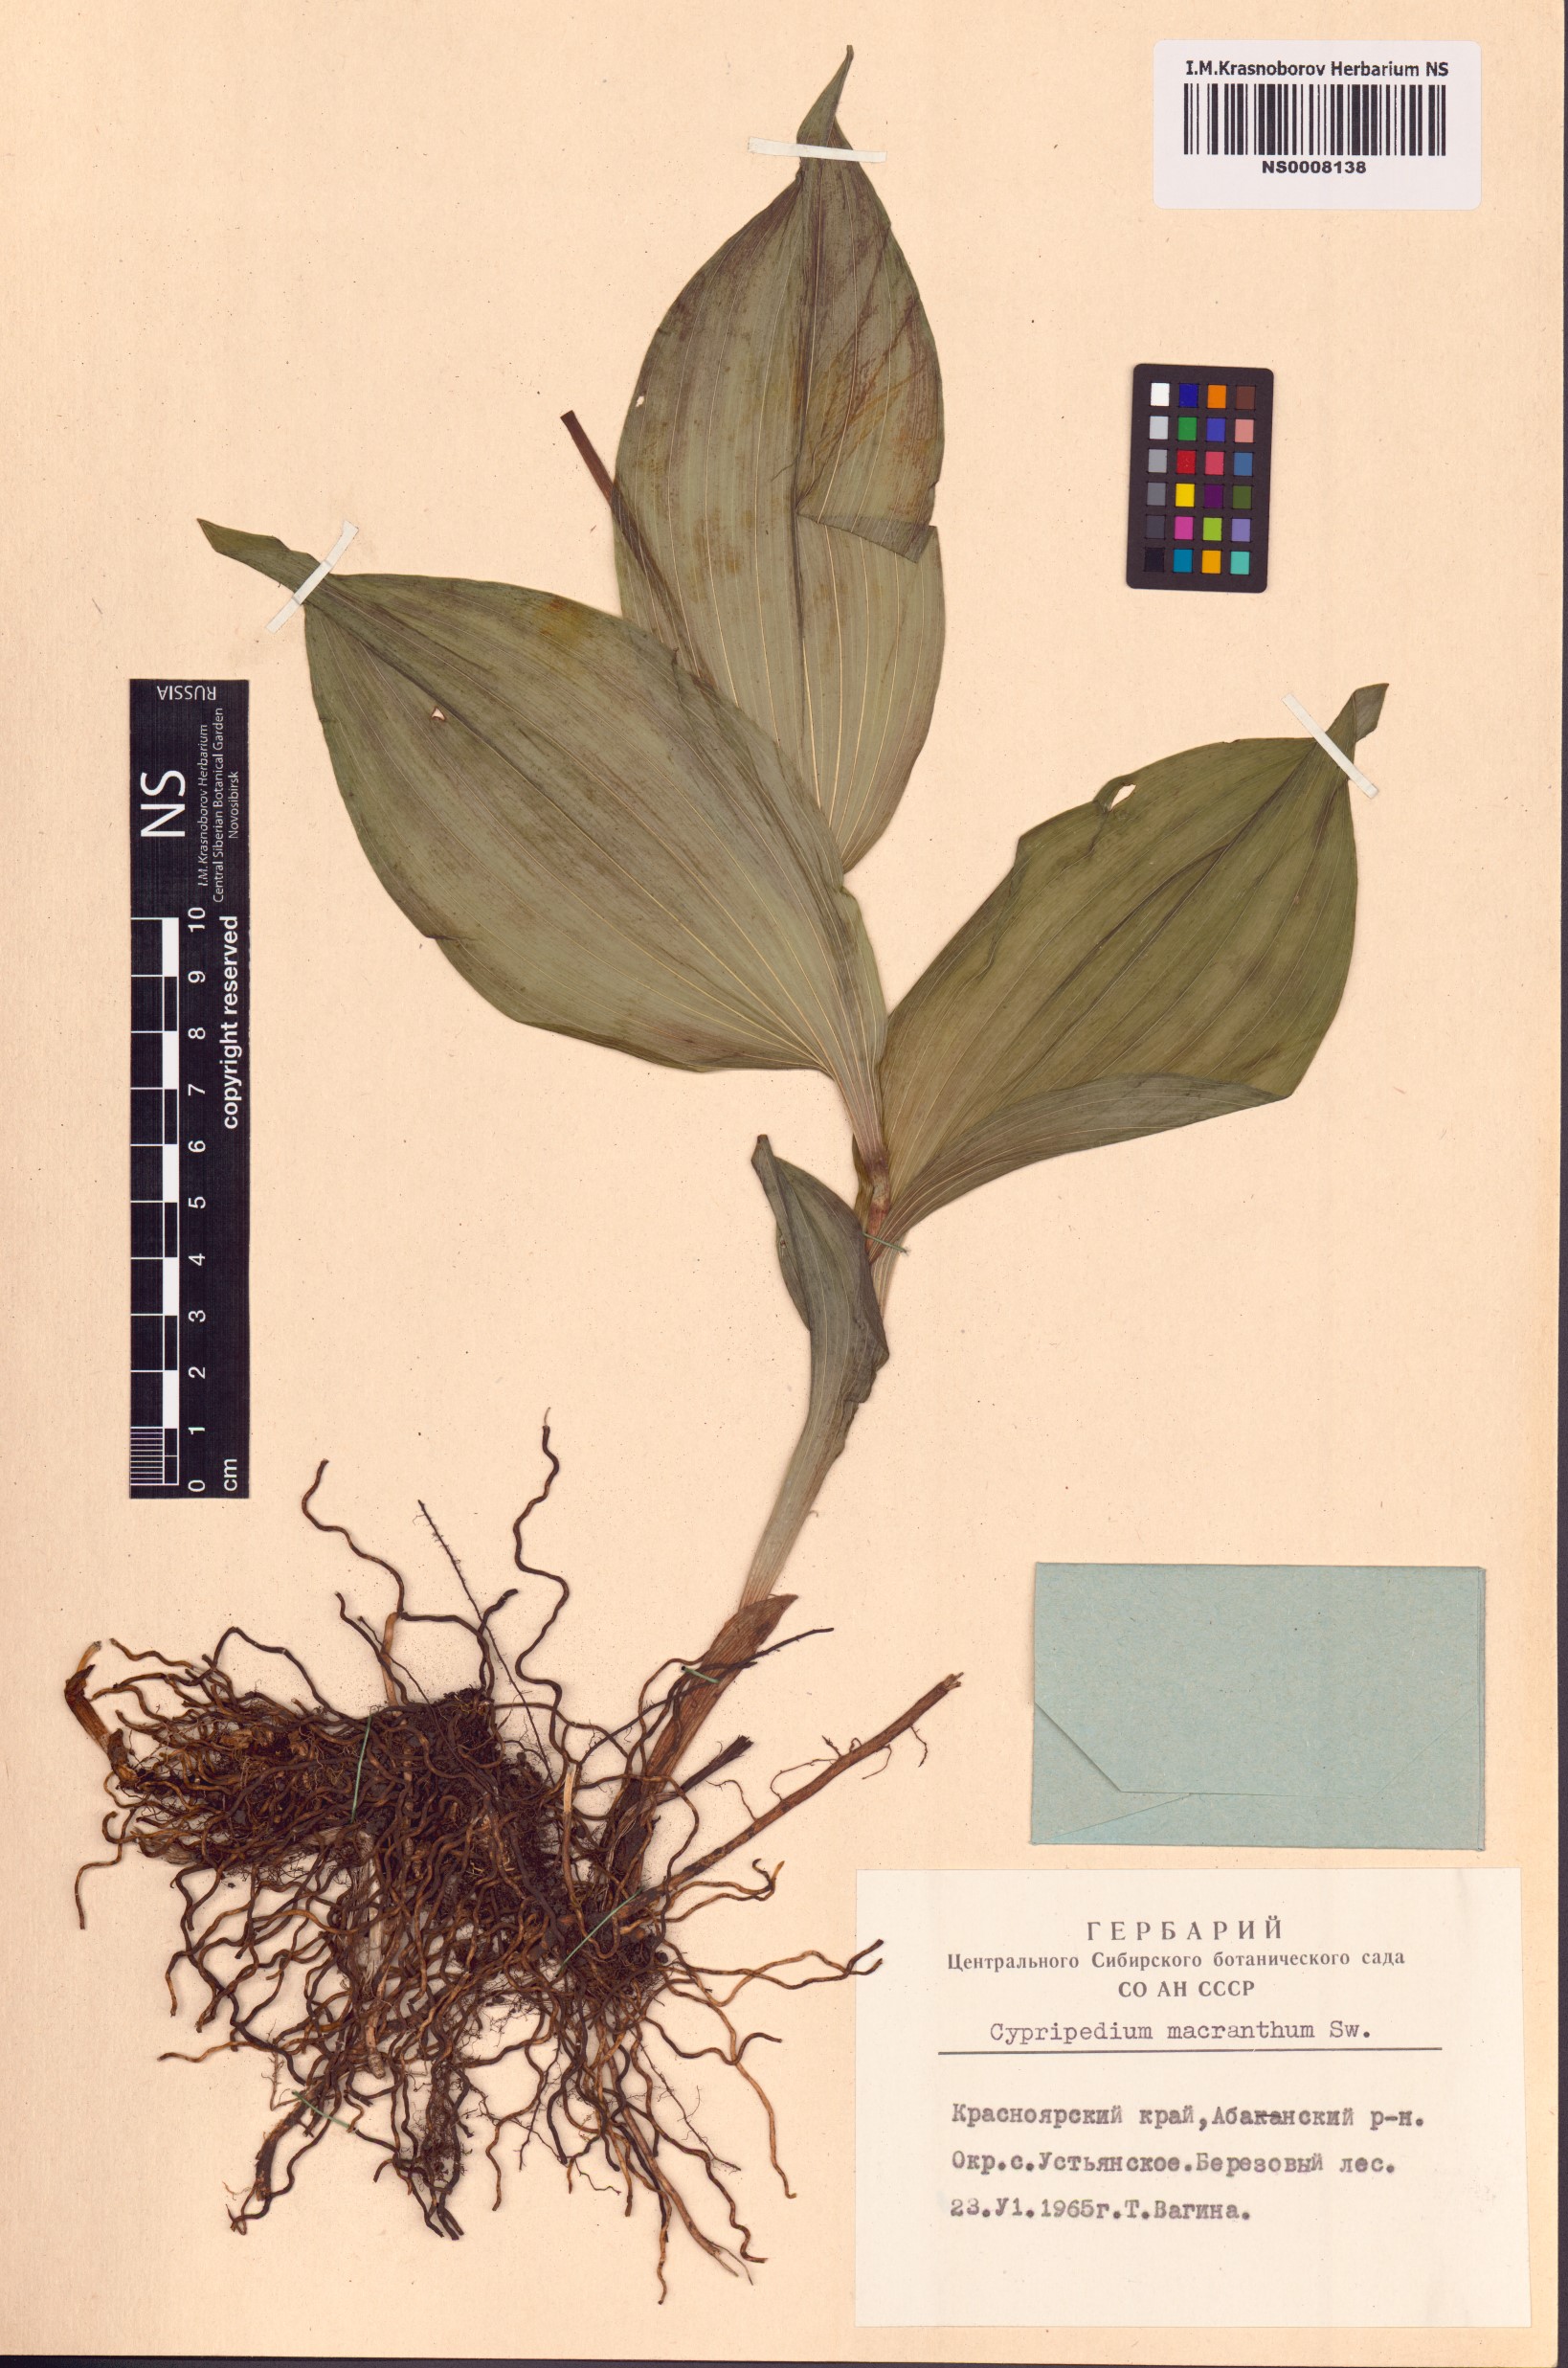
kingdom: Plantae
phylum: Tracheophyta
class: Liliopsida
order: Asparagales
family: Orchidaceae
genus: Cypripedium
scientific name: Cypripedium macranthos
